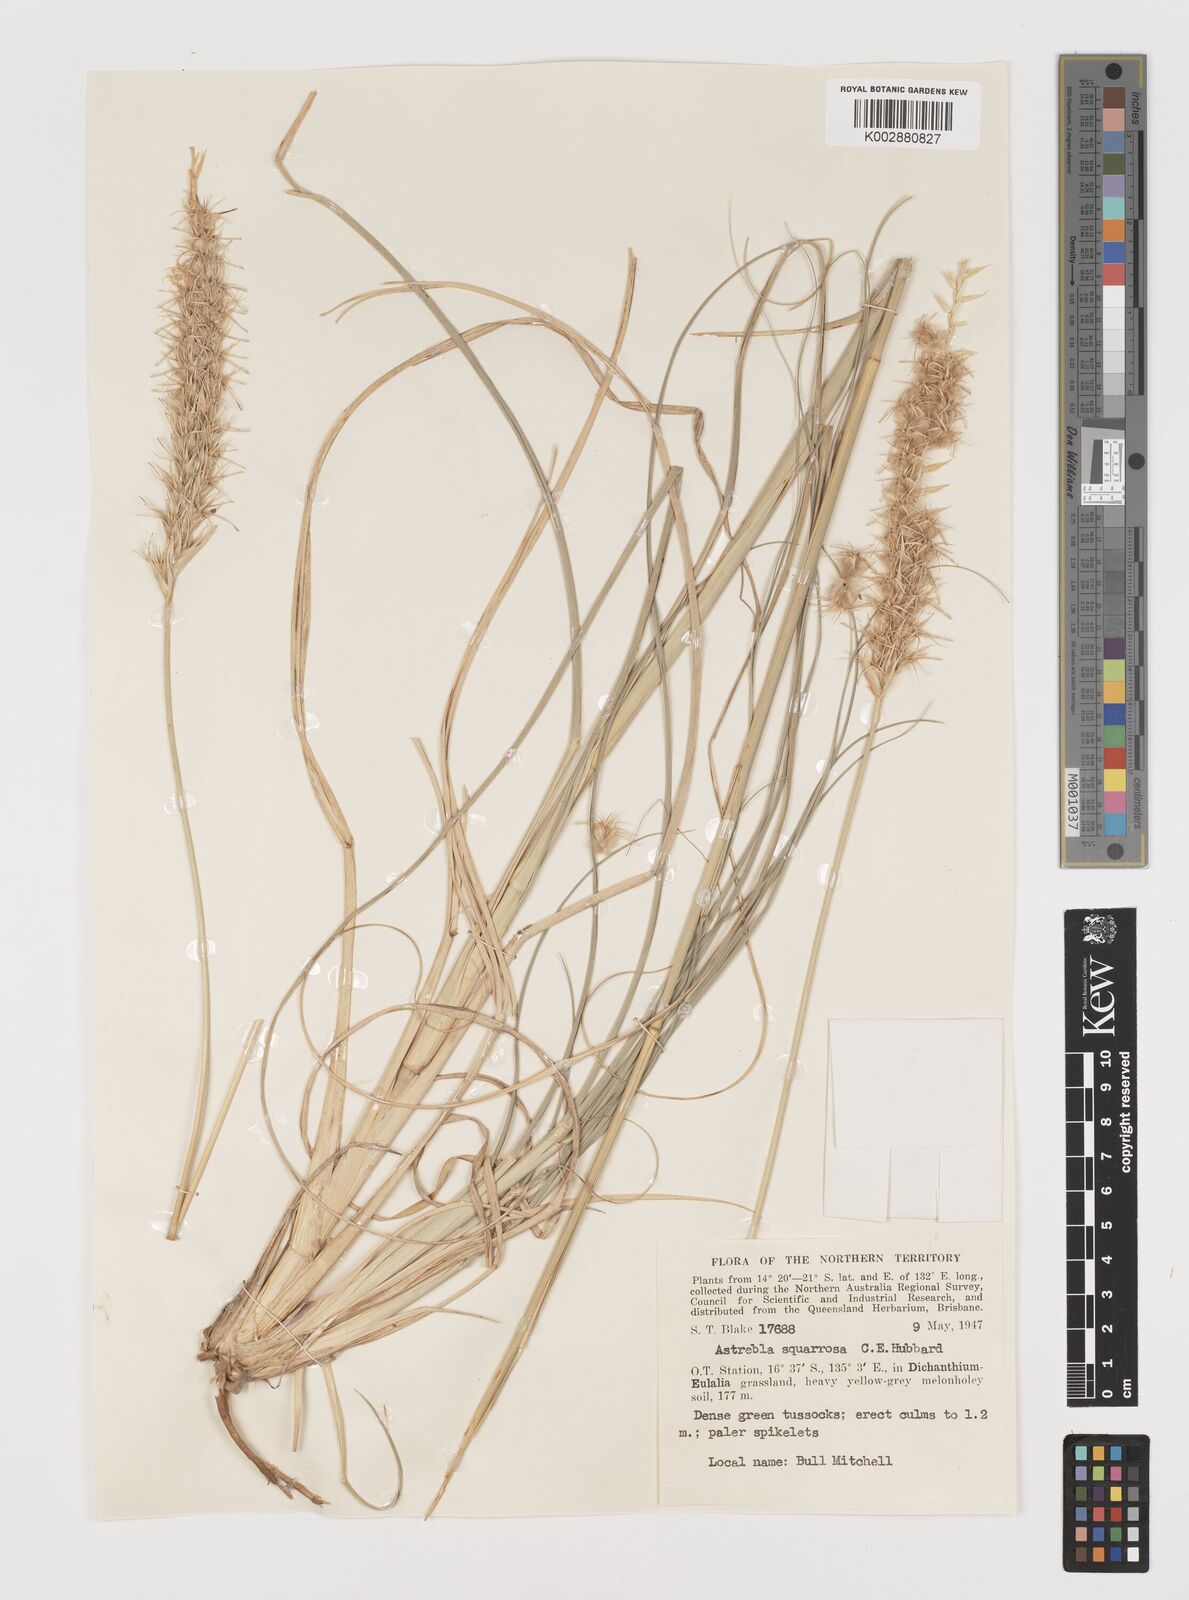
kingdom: Plantae
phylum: Tracheophyta
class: Liliopsida
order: Poales
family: Poaceae
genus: Astrebla
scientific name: Astrebla squarrosa
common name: Wheat-ear mitchell grass
